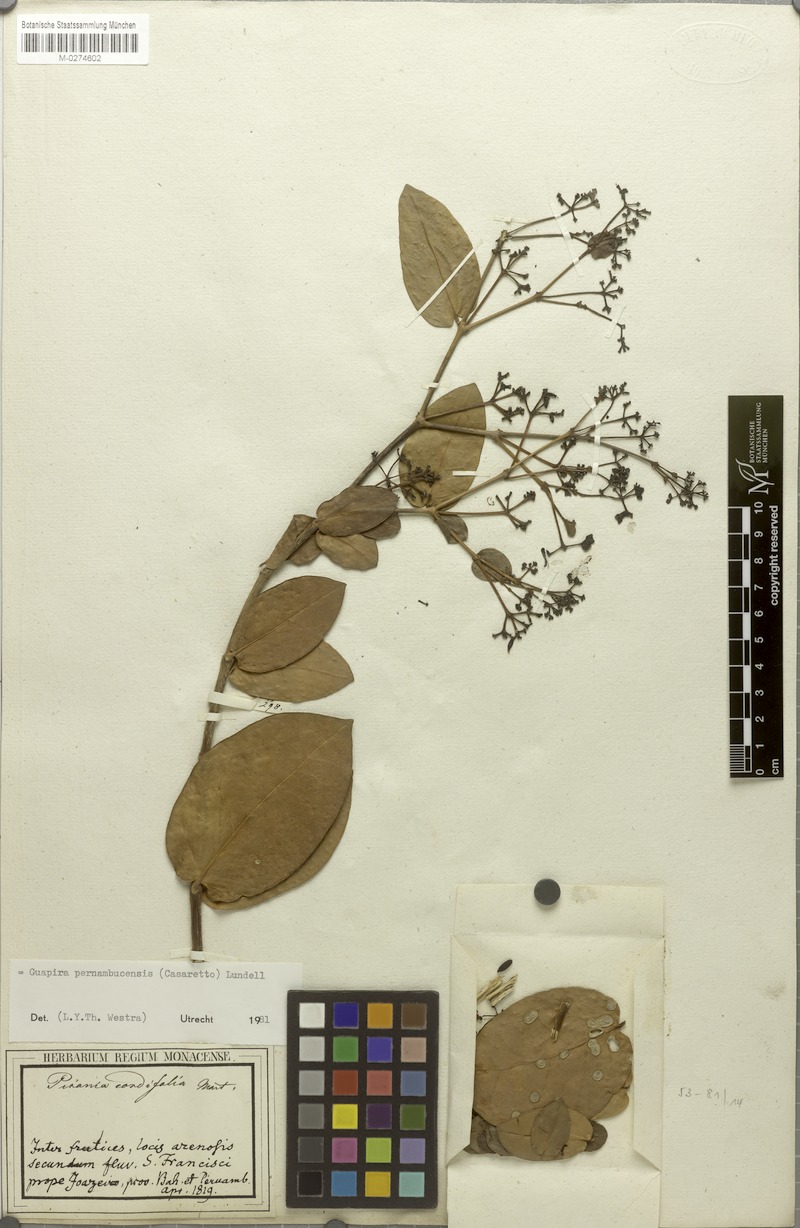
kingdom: Plantae
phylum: Tracheophyta
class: Magnoliopsida
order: Caryophyllales
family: Nyctaginaceae
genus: Guapira
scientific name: Guapira pernambucensis
